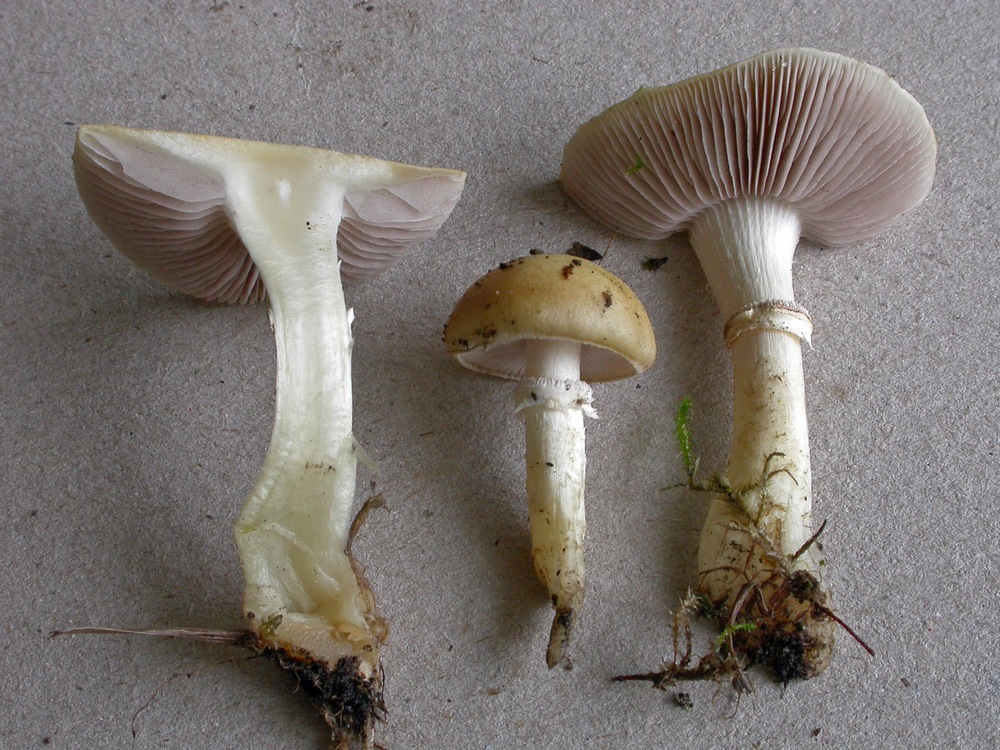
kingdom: Fungi
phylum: Basidiomycota
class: Agaricomycetes
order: Agaricales
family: Hymenogastraceae
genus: Psilocybe
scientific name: Psilocybe coronilla
